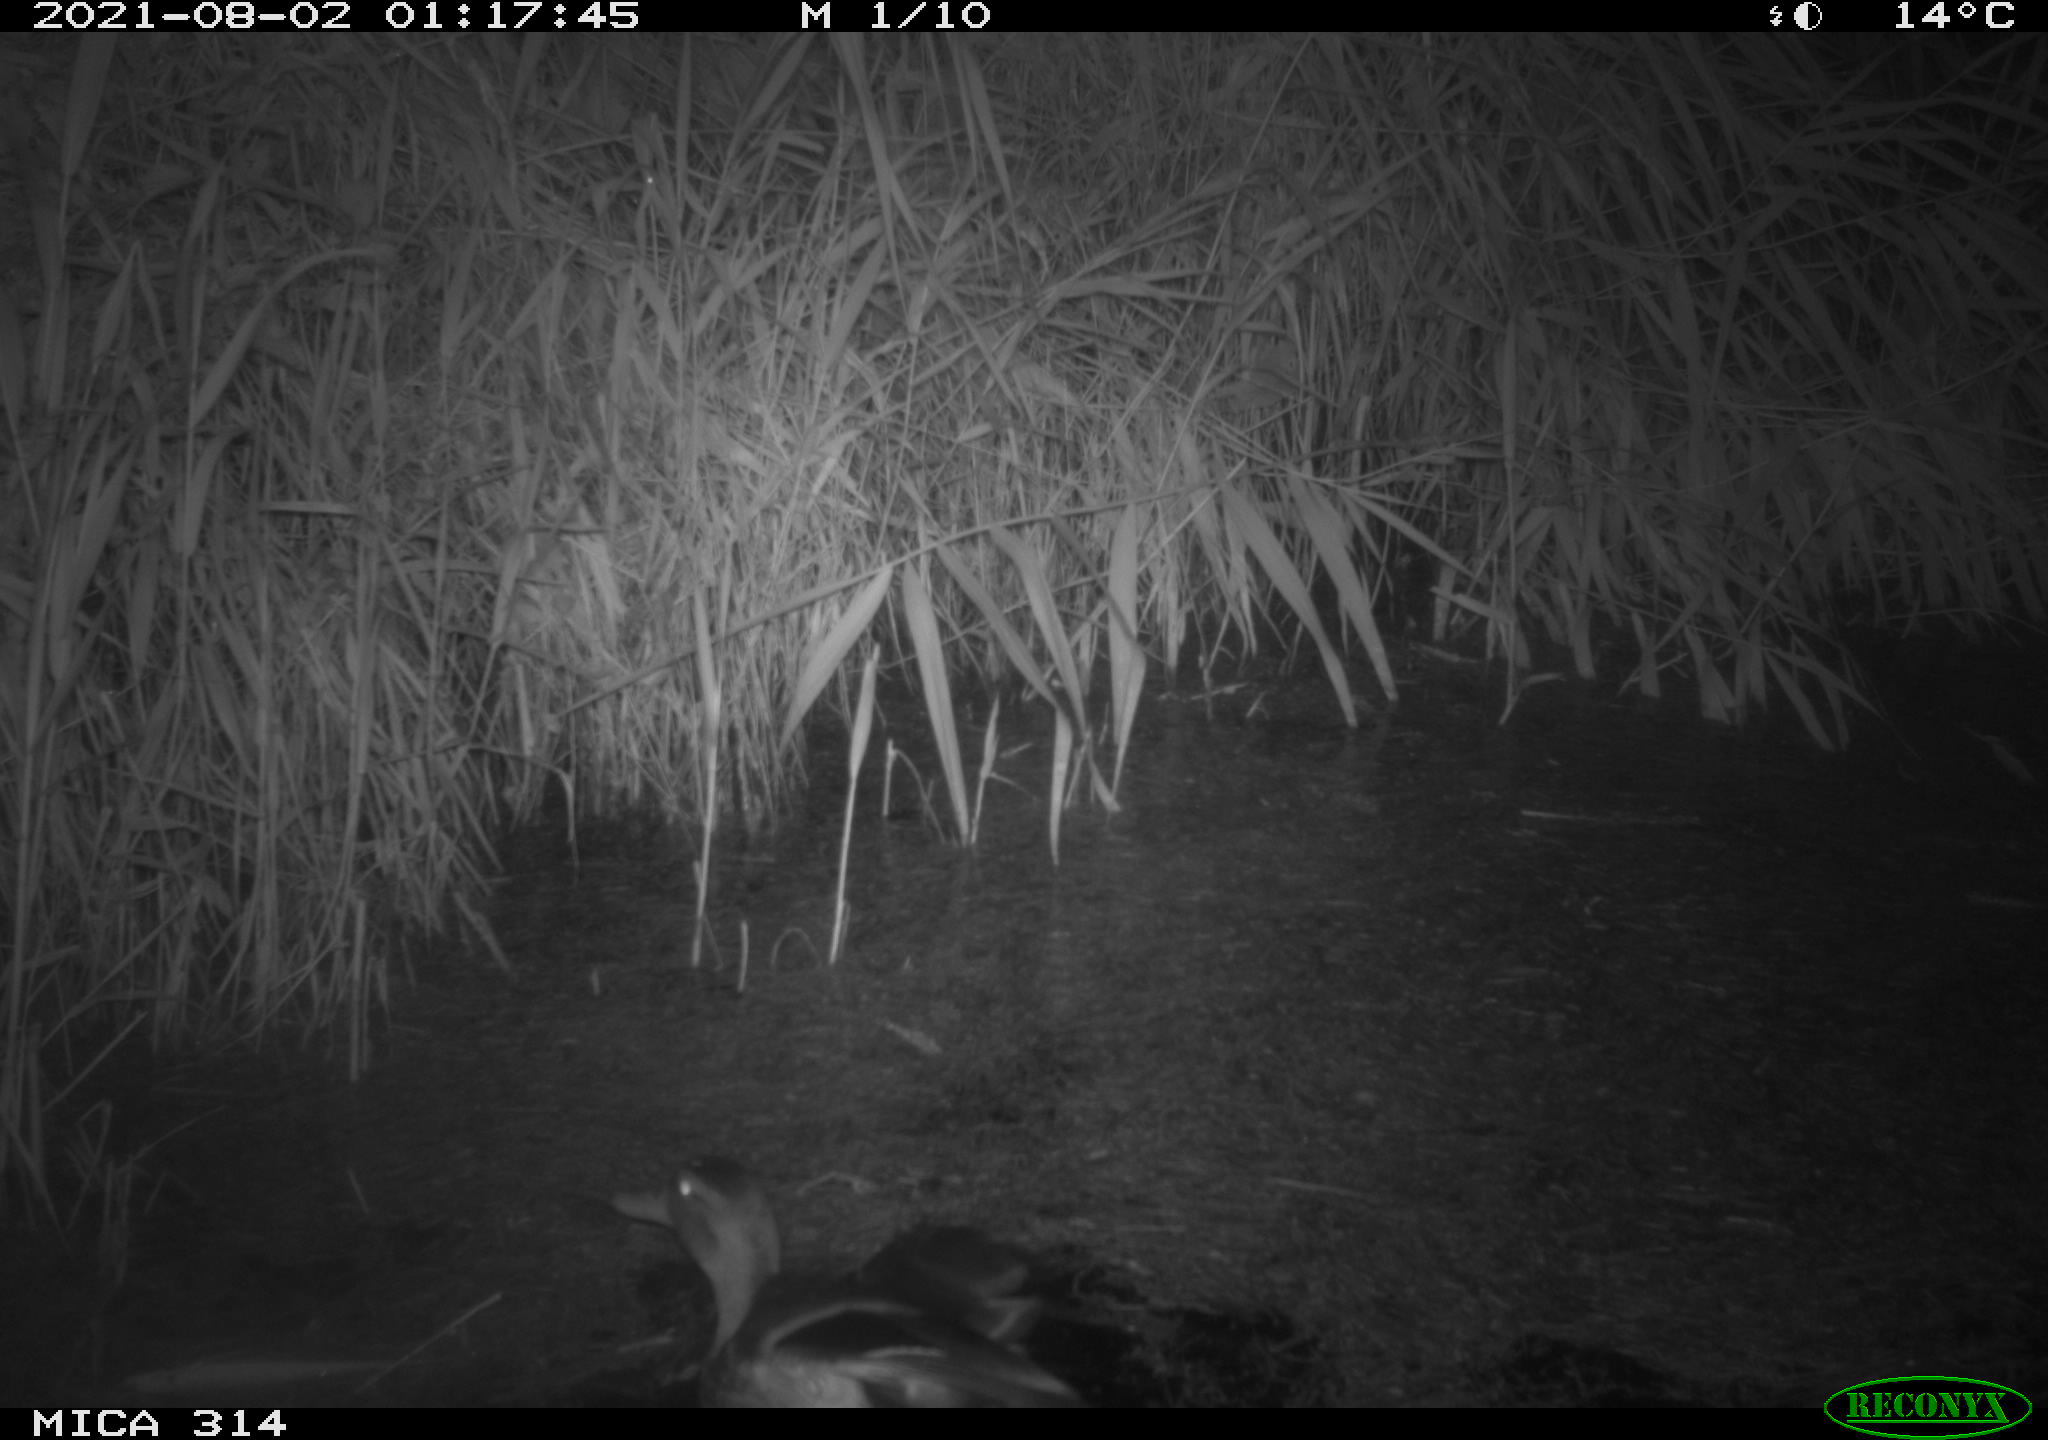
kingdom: Animalia
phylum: Chordata
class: Aves
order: Anseriformes
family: Anatidae
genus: Anas
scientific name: Anas platyrhynchos
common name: Mallard
